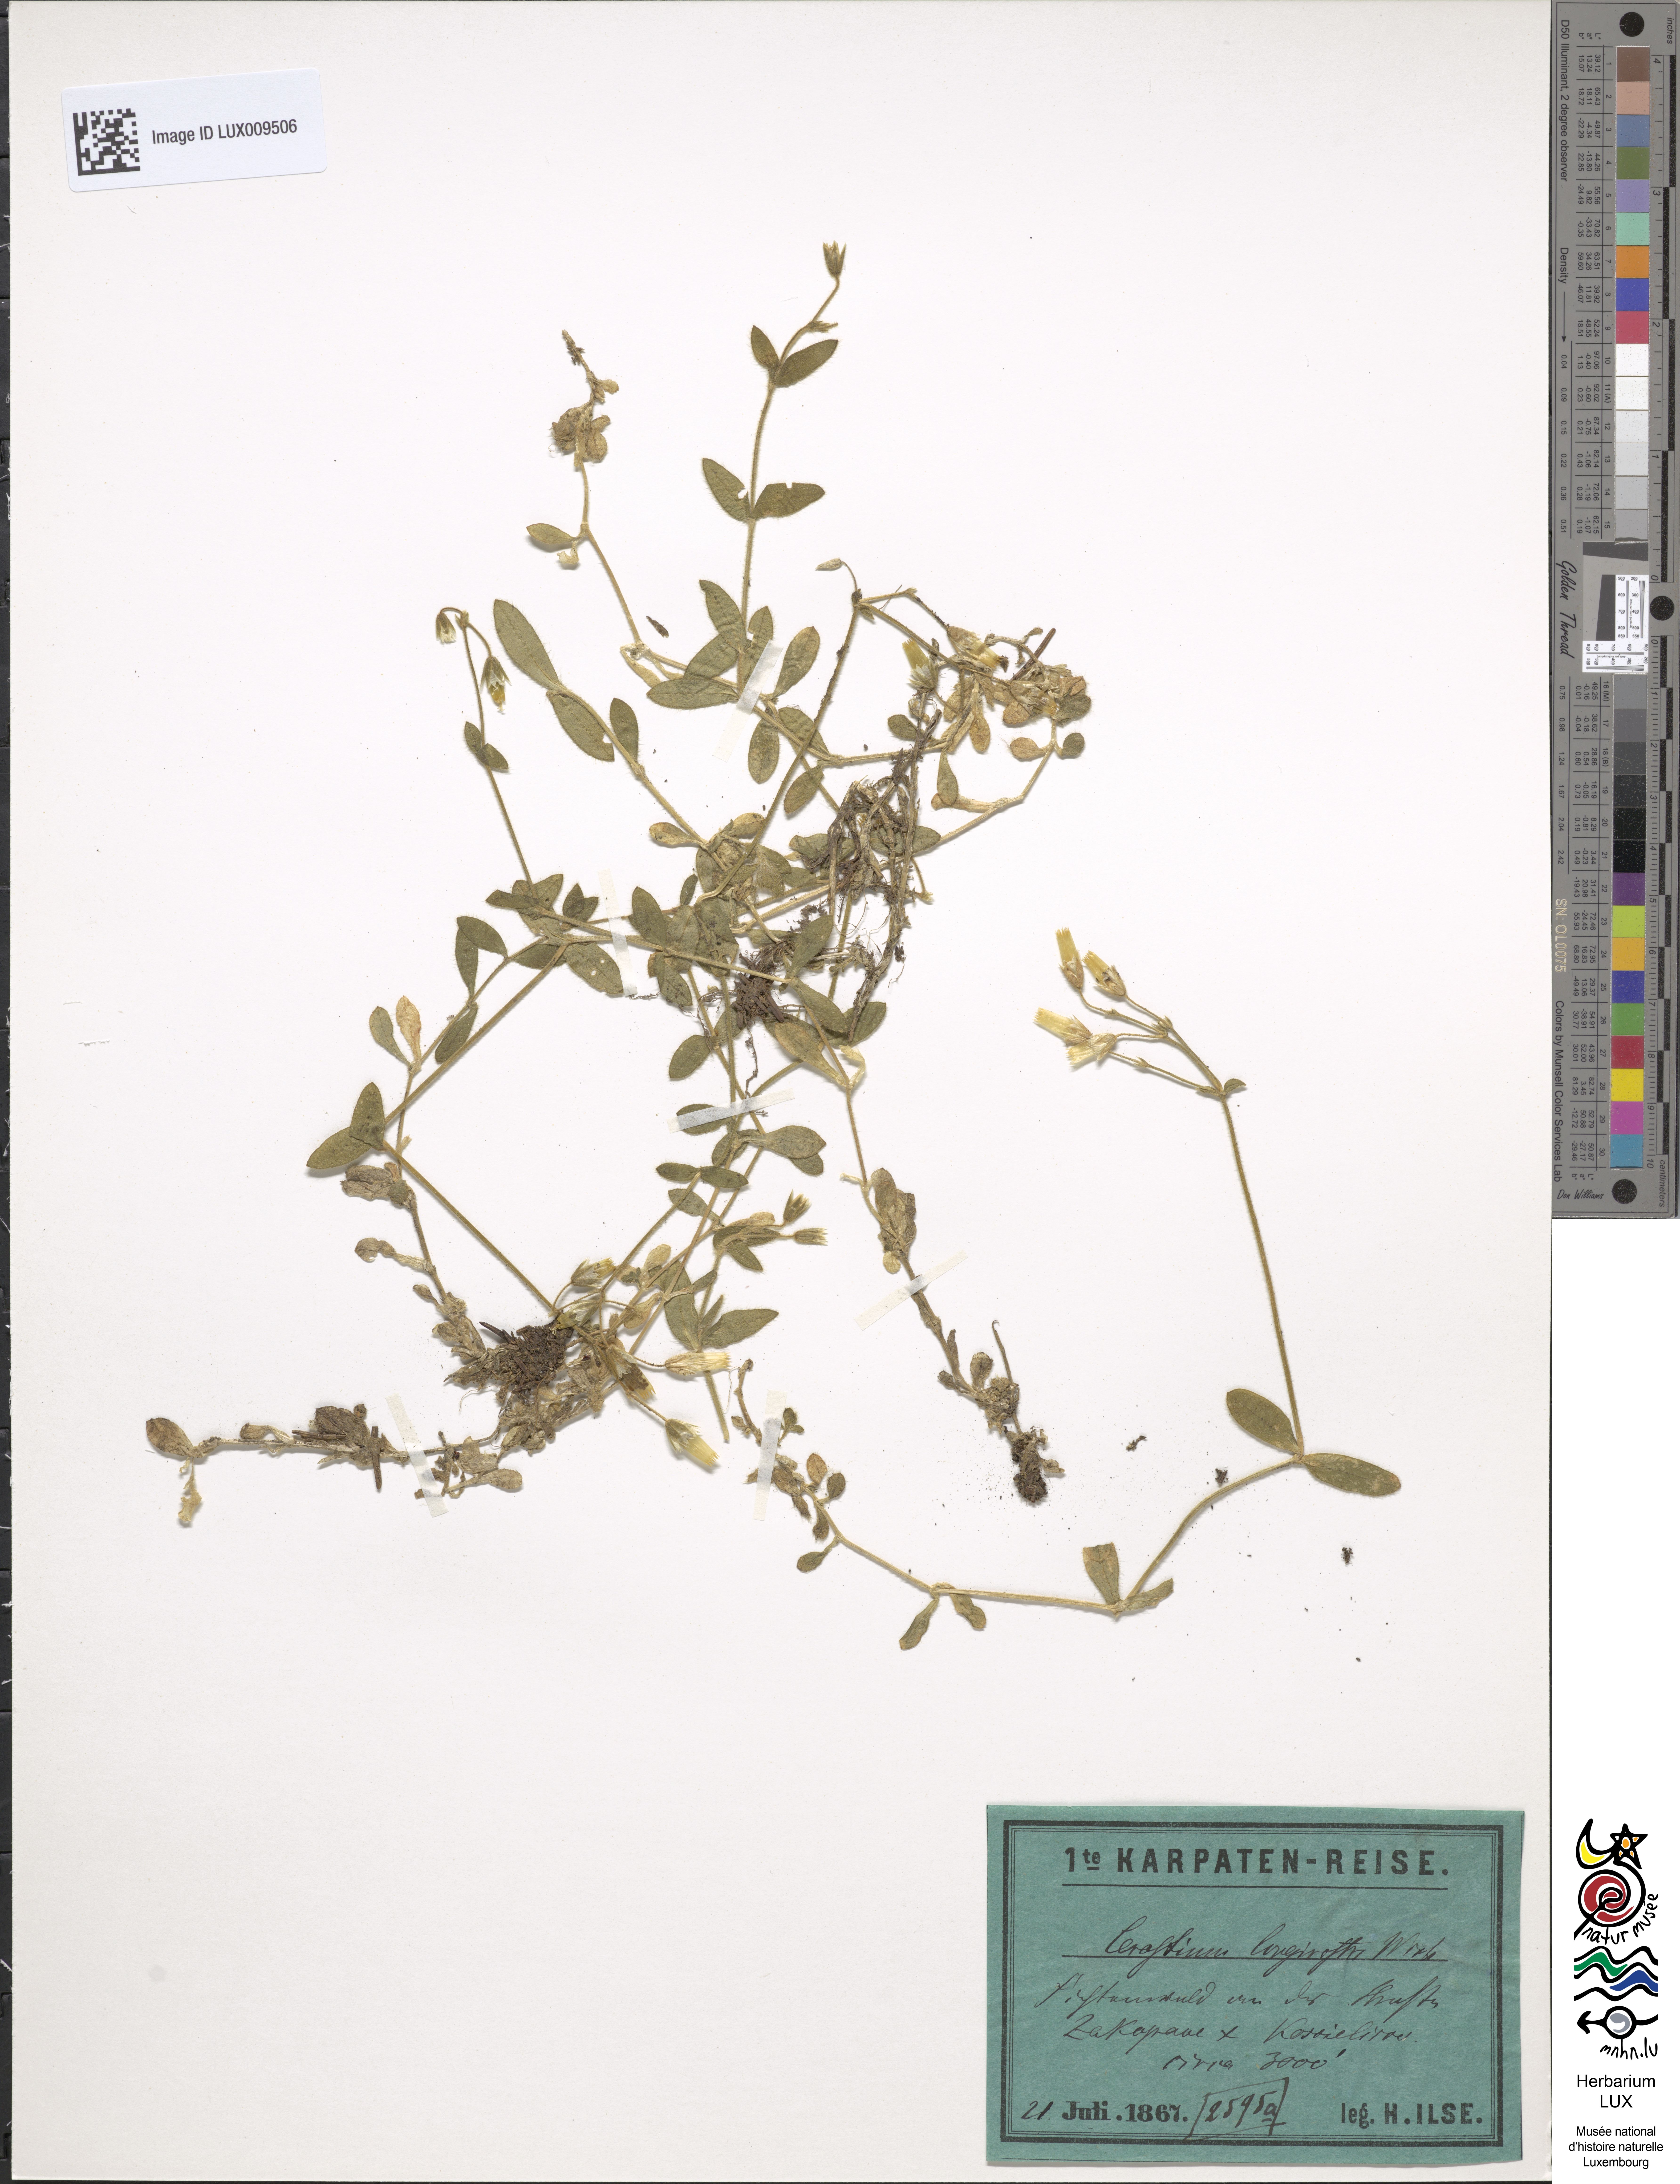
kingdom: Plantae
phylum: Tracheophyta
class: Magnoliopsida
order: Caryophyllales
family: Caryophyllaceae
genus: Cerastium
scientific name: Cerastium fontanum
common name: Common mouse-ear
